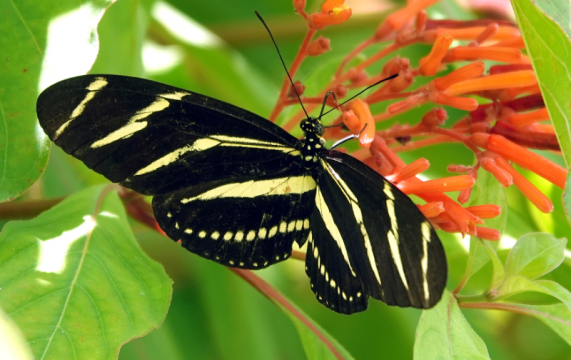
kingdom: Animalia
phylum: Arthropoda
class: Insecta
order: Lepidoptera
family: Nymphalidae
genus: Heliconius
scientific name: Heliconius charithonia
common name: Zebra Longwing
